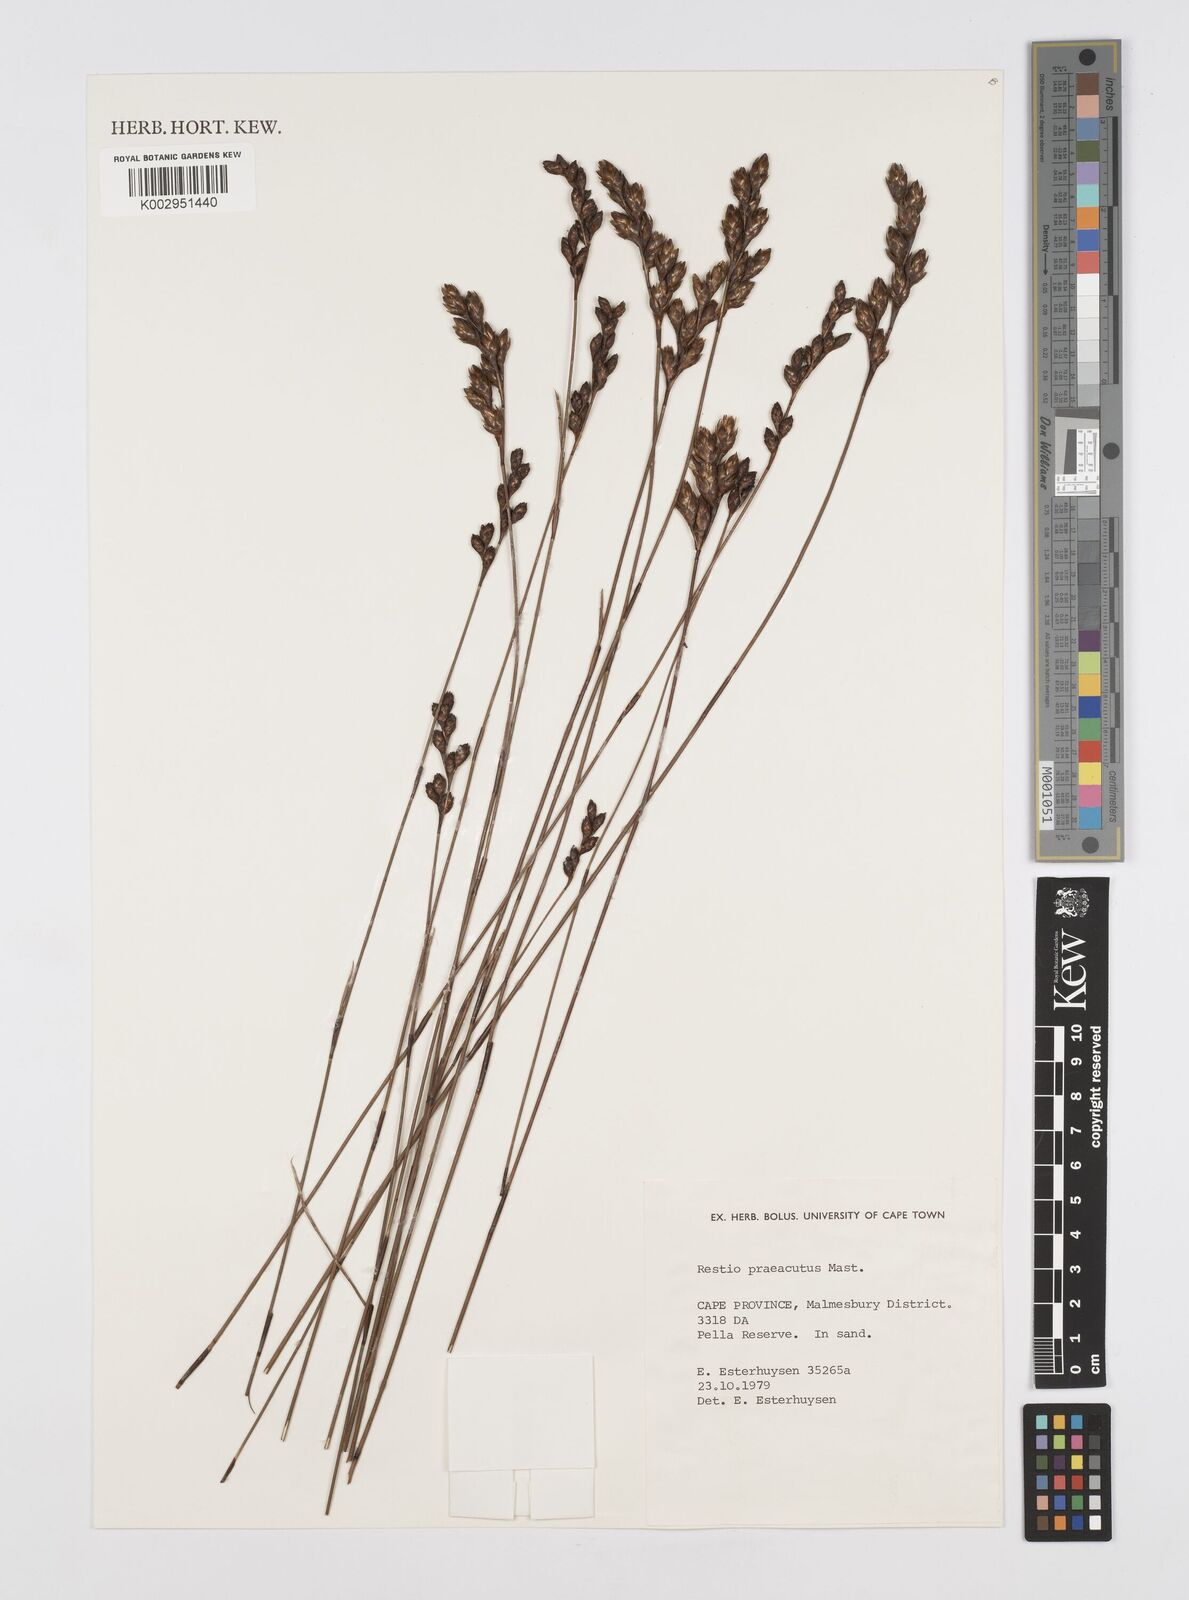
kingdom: Plantae
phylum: Tracheophyta
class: Liliopsida
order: Poales
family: Restionaceae
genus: Restio
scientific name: Restio
